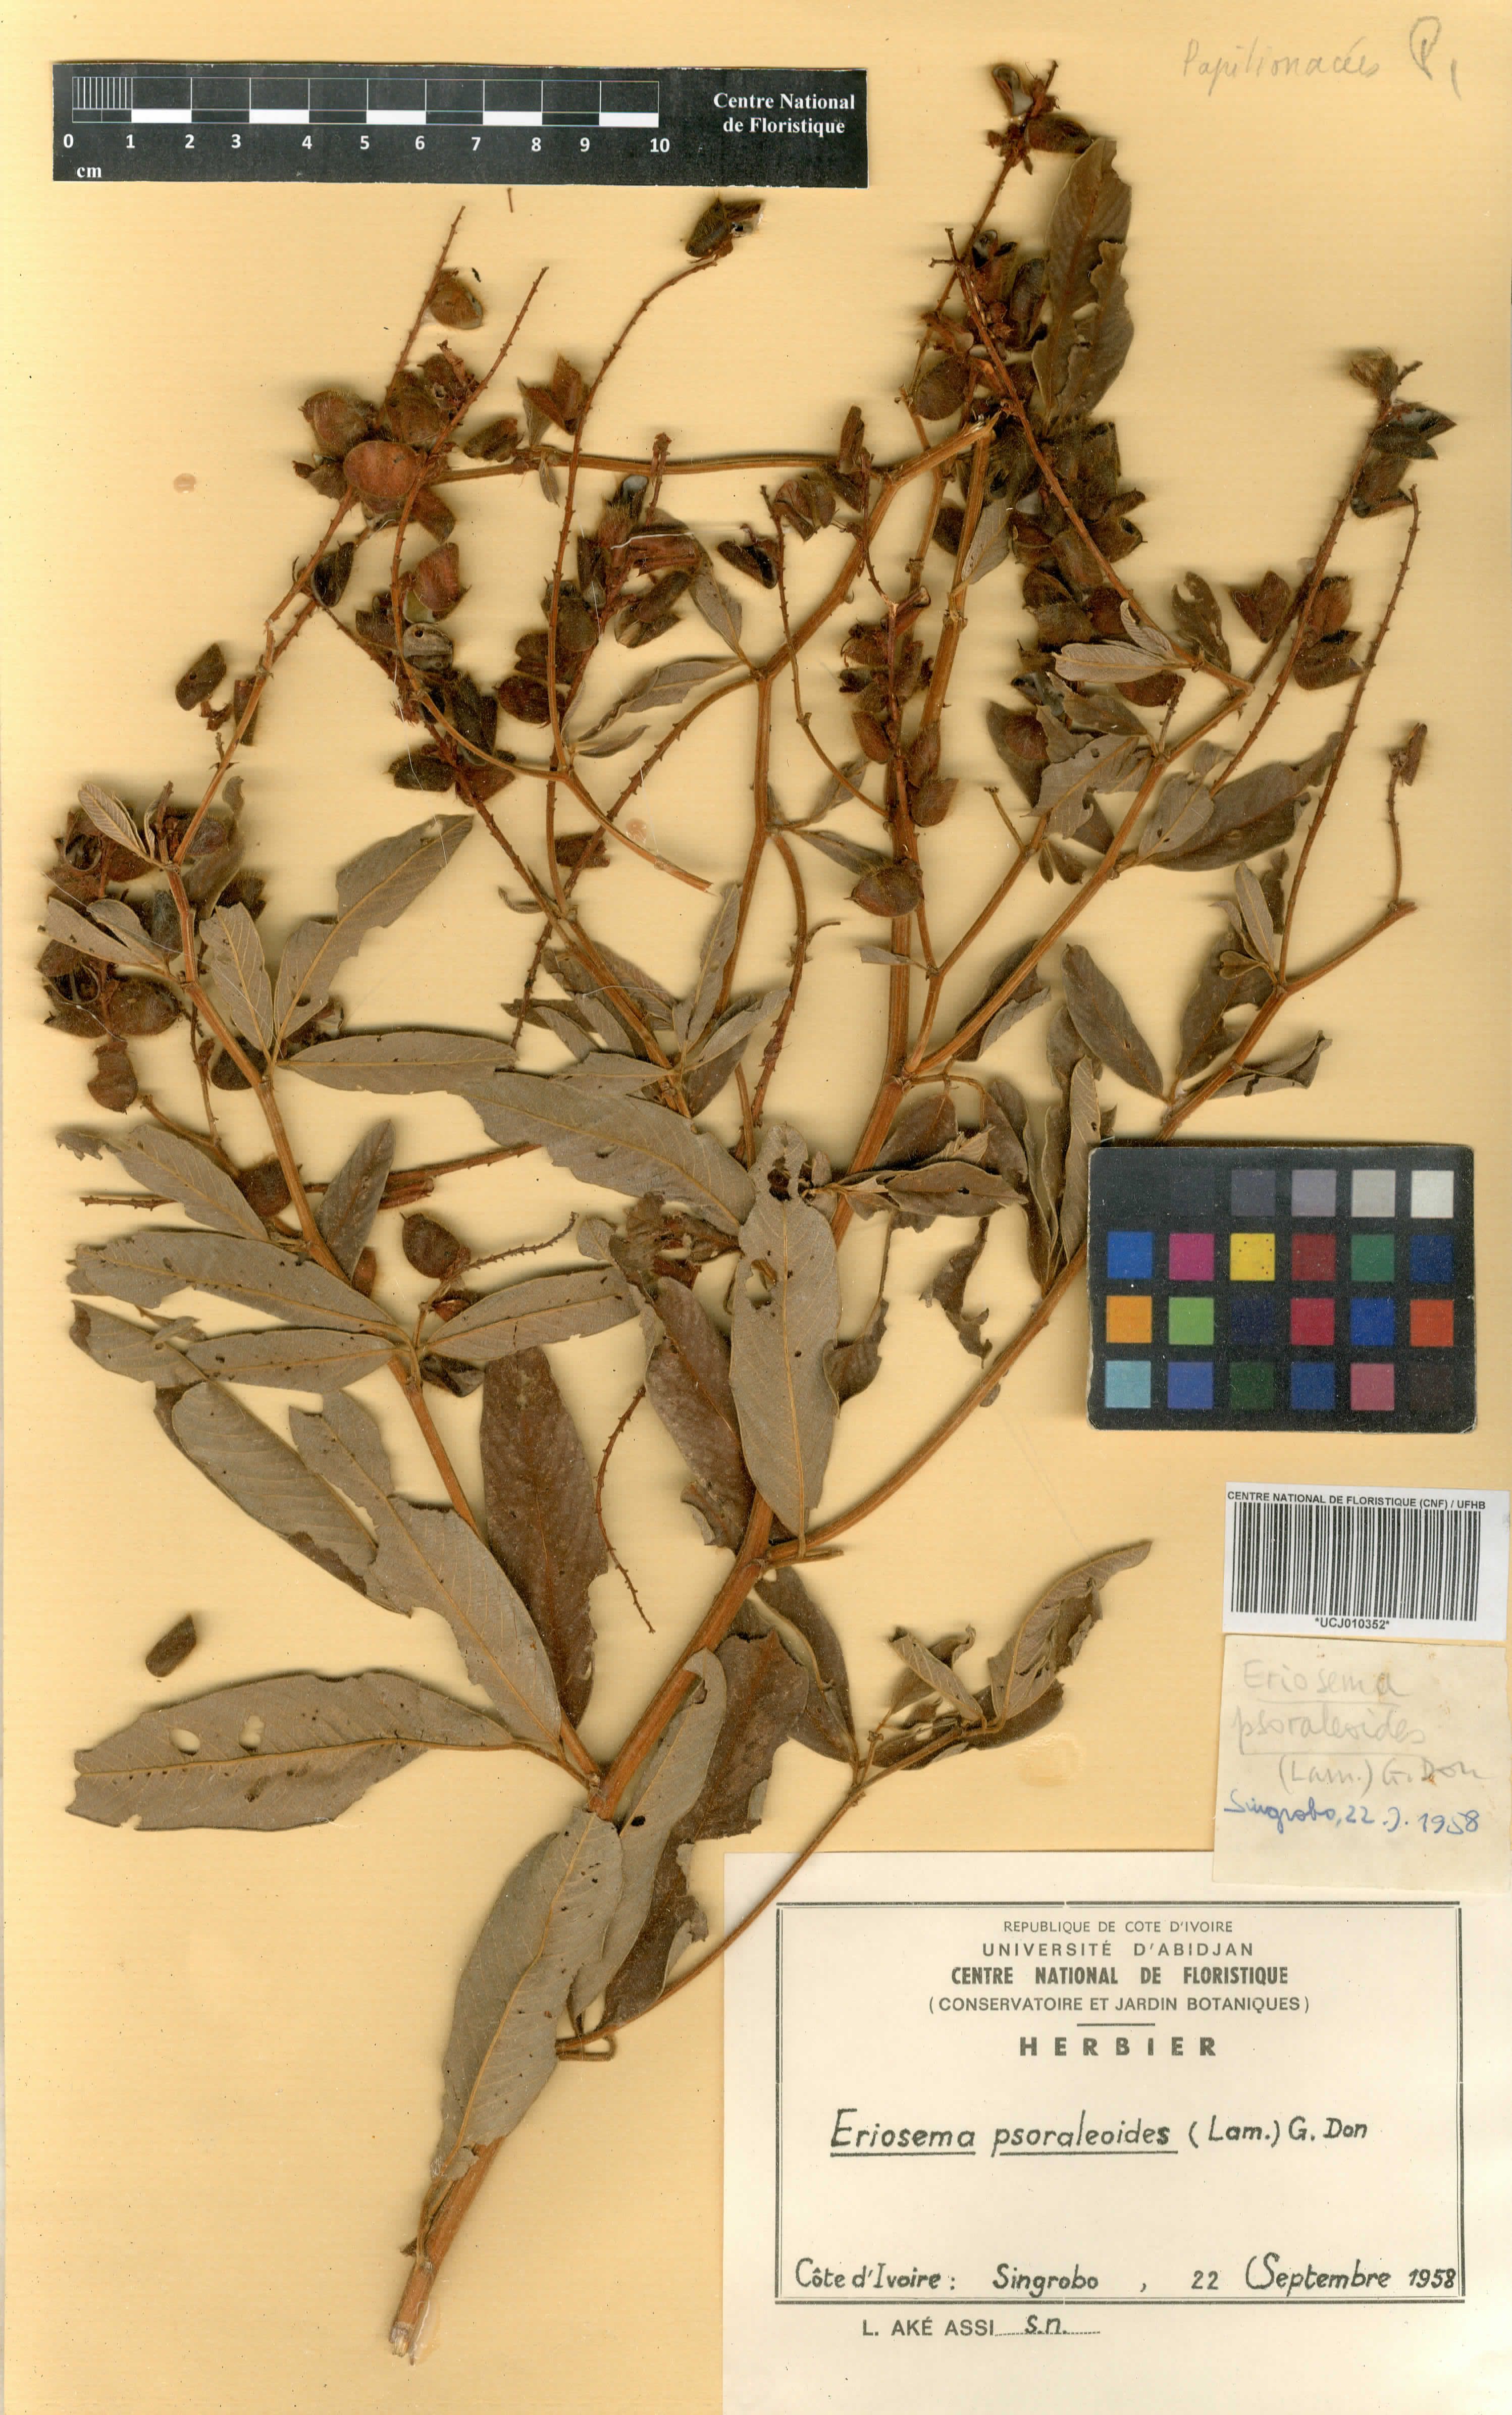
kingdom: Plantae
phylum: Tracheophyta
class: Magnoliopsida
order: Fabales
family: Fabaceae
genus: Eriosema
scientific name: Eriosema psoraleoides
